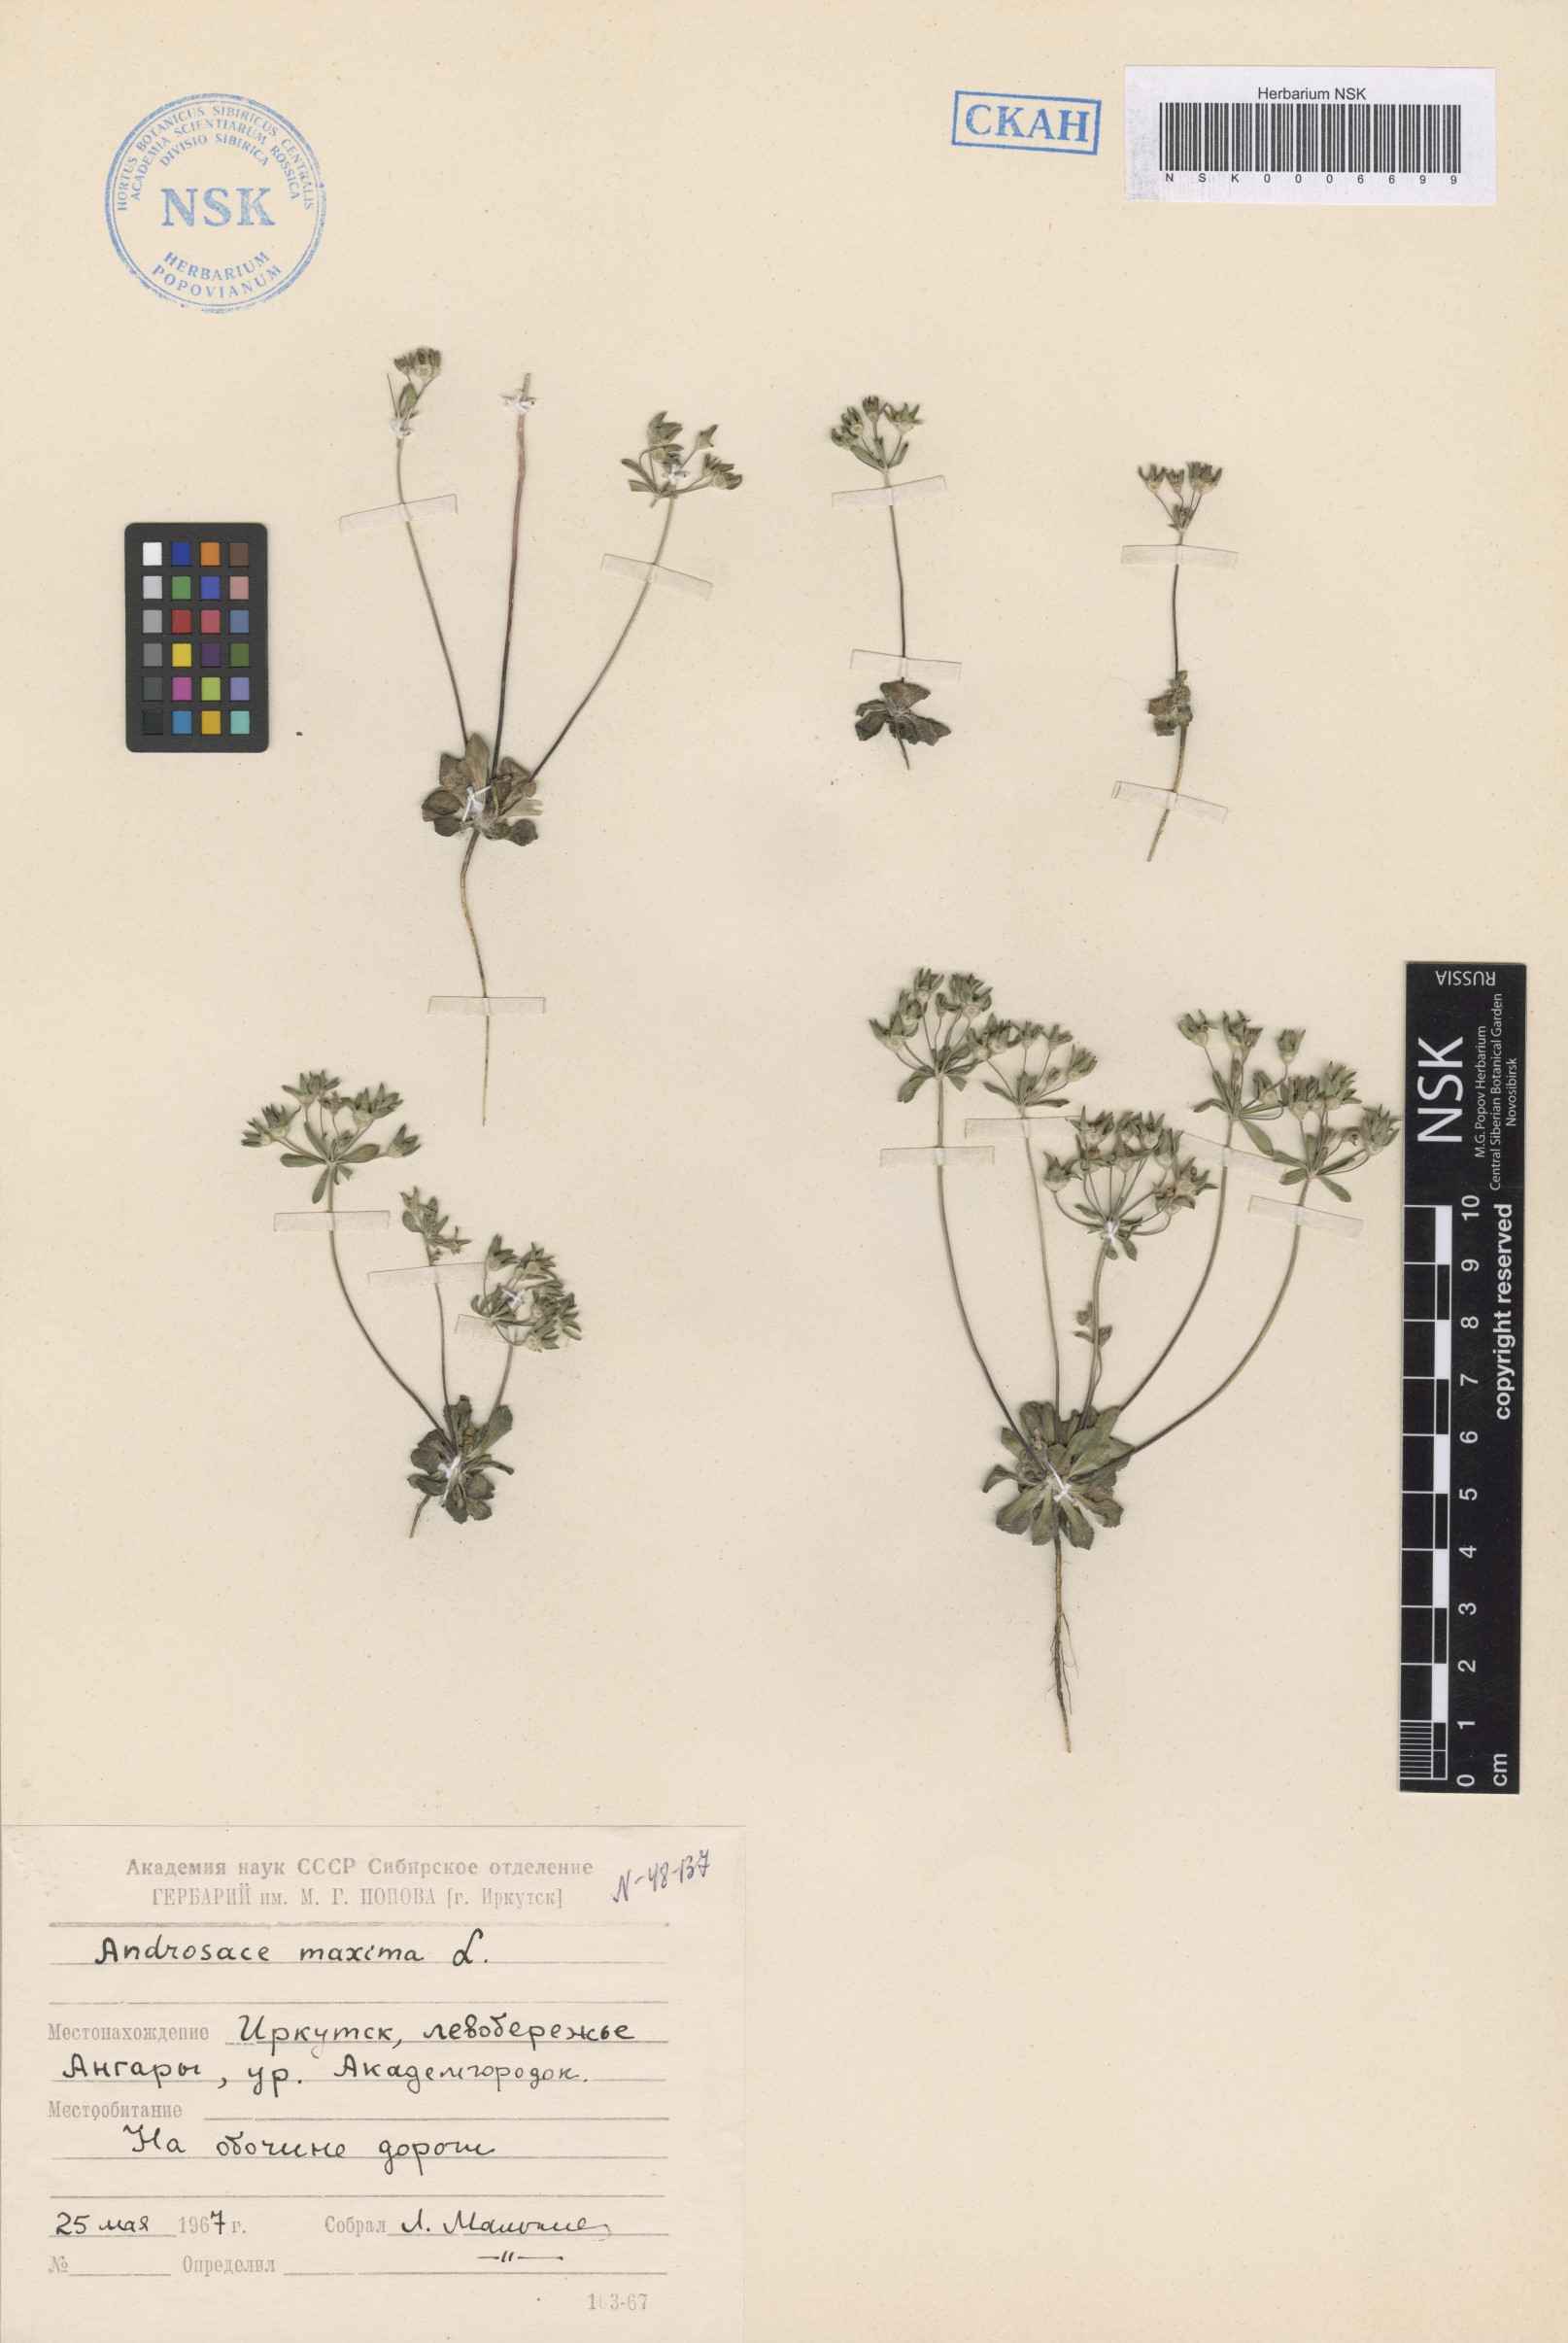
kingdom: Plantae
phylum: Tracheophyta
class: Magnoliopsida
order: Ericales
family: Primulaceae
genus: Androsace
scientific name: Androsace maxima
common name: Annual androsace
